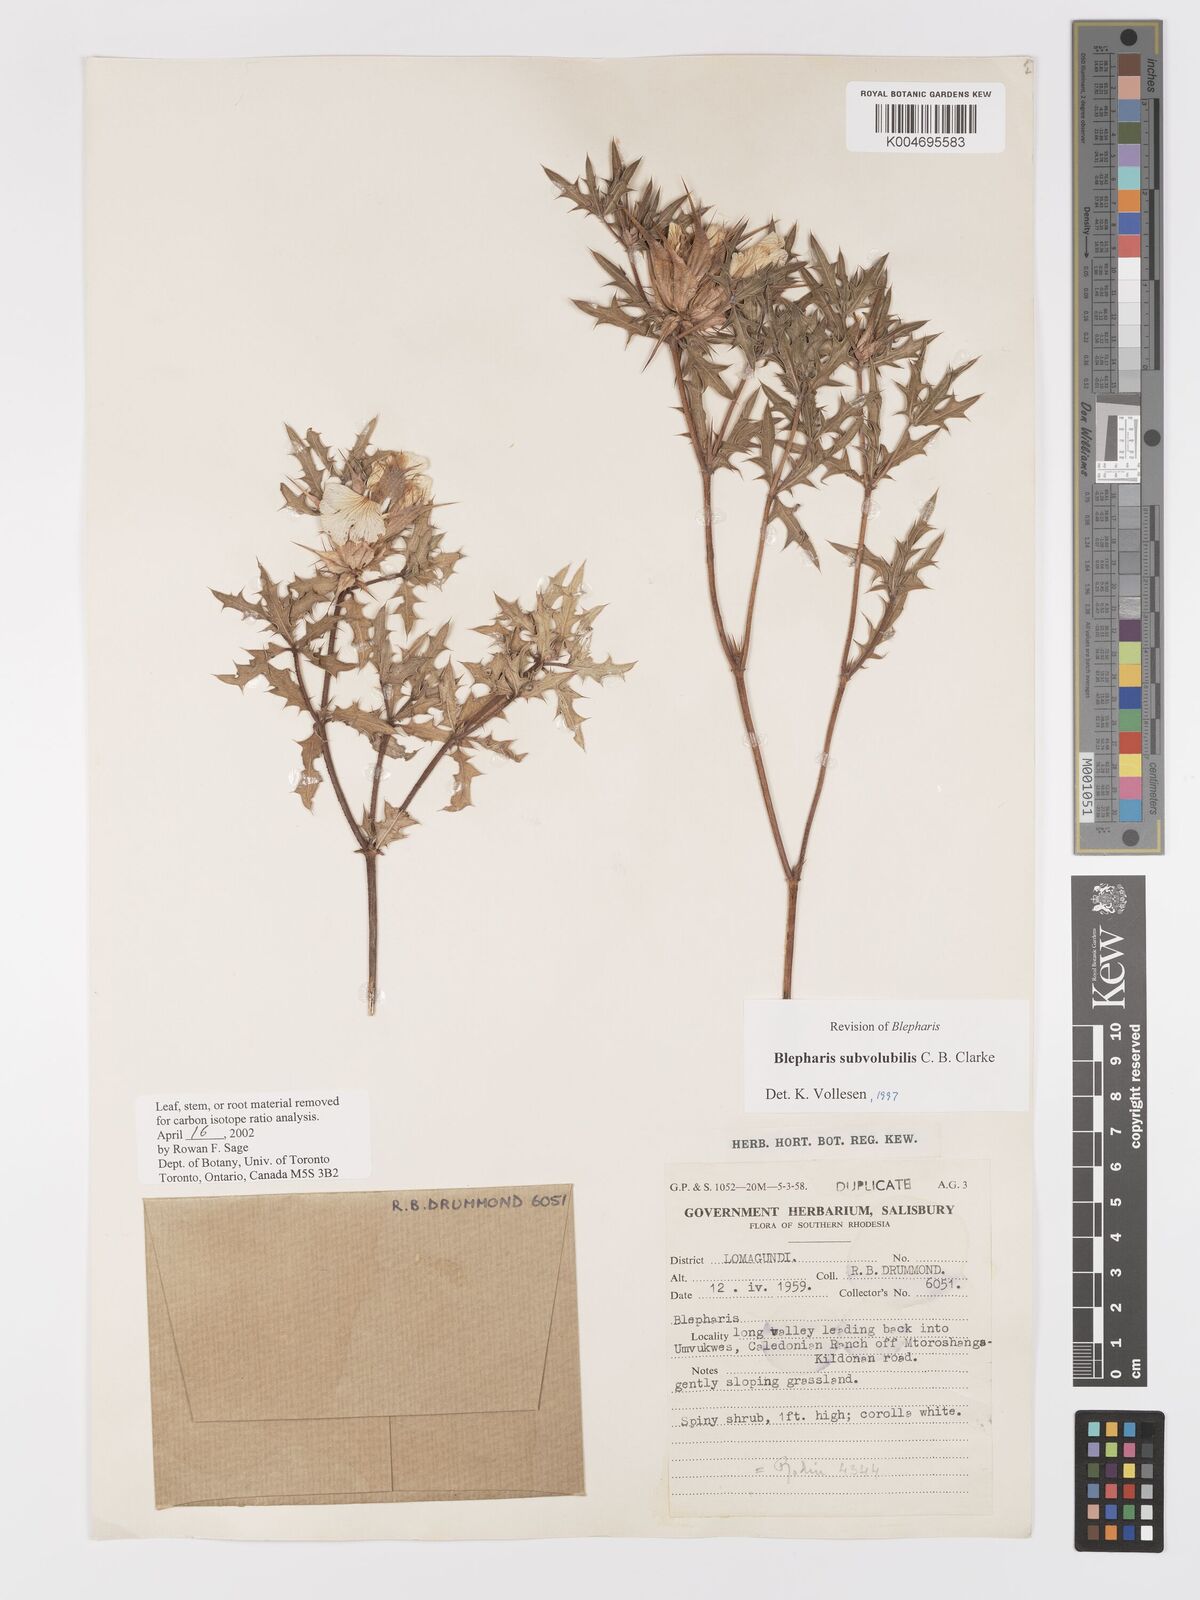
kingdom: Plantae
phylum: Tracheophyta
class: Magnoliopsida
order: Lamiales
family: Acanthaceae
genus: Blepharis
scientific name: Blepharis subvolubilis
